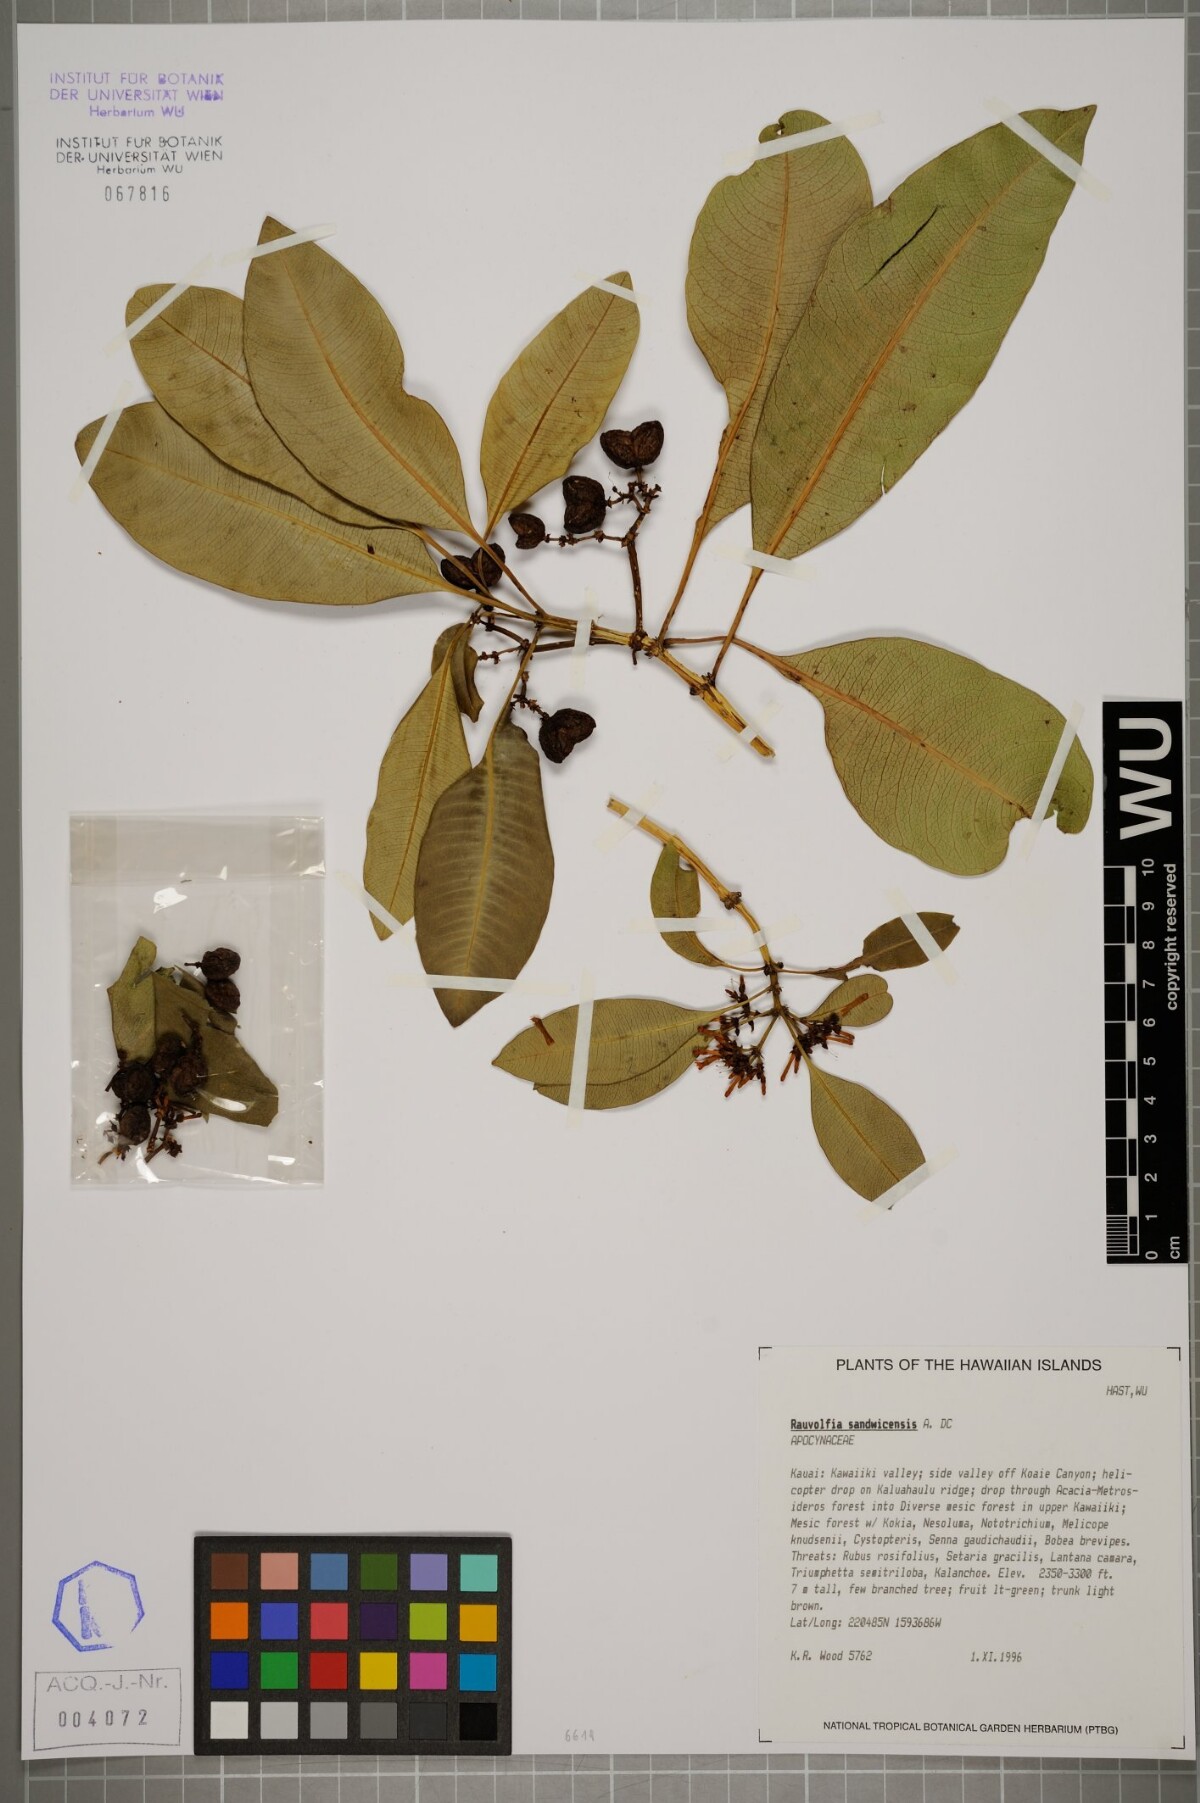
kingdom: Plantae
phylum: Tracheophyta
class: Magnoliopsida
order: Gentianales
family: Apocynaceae
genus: Rauvolfia
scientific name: Rauvolfia sandwicensis
